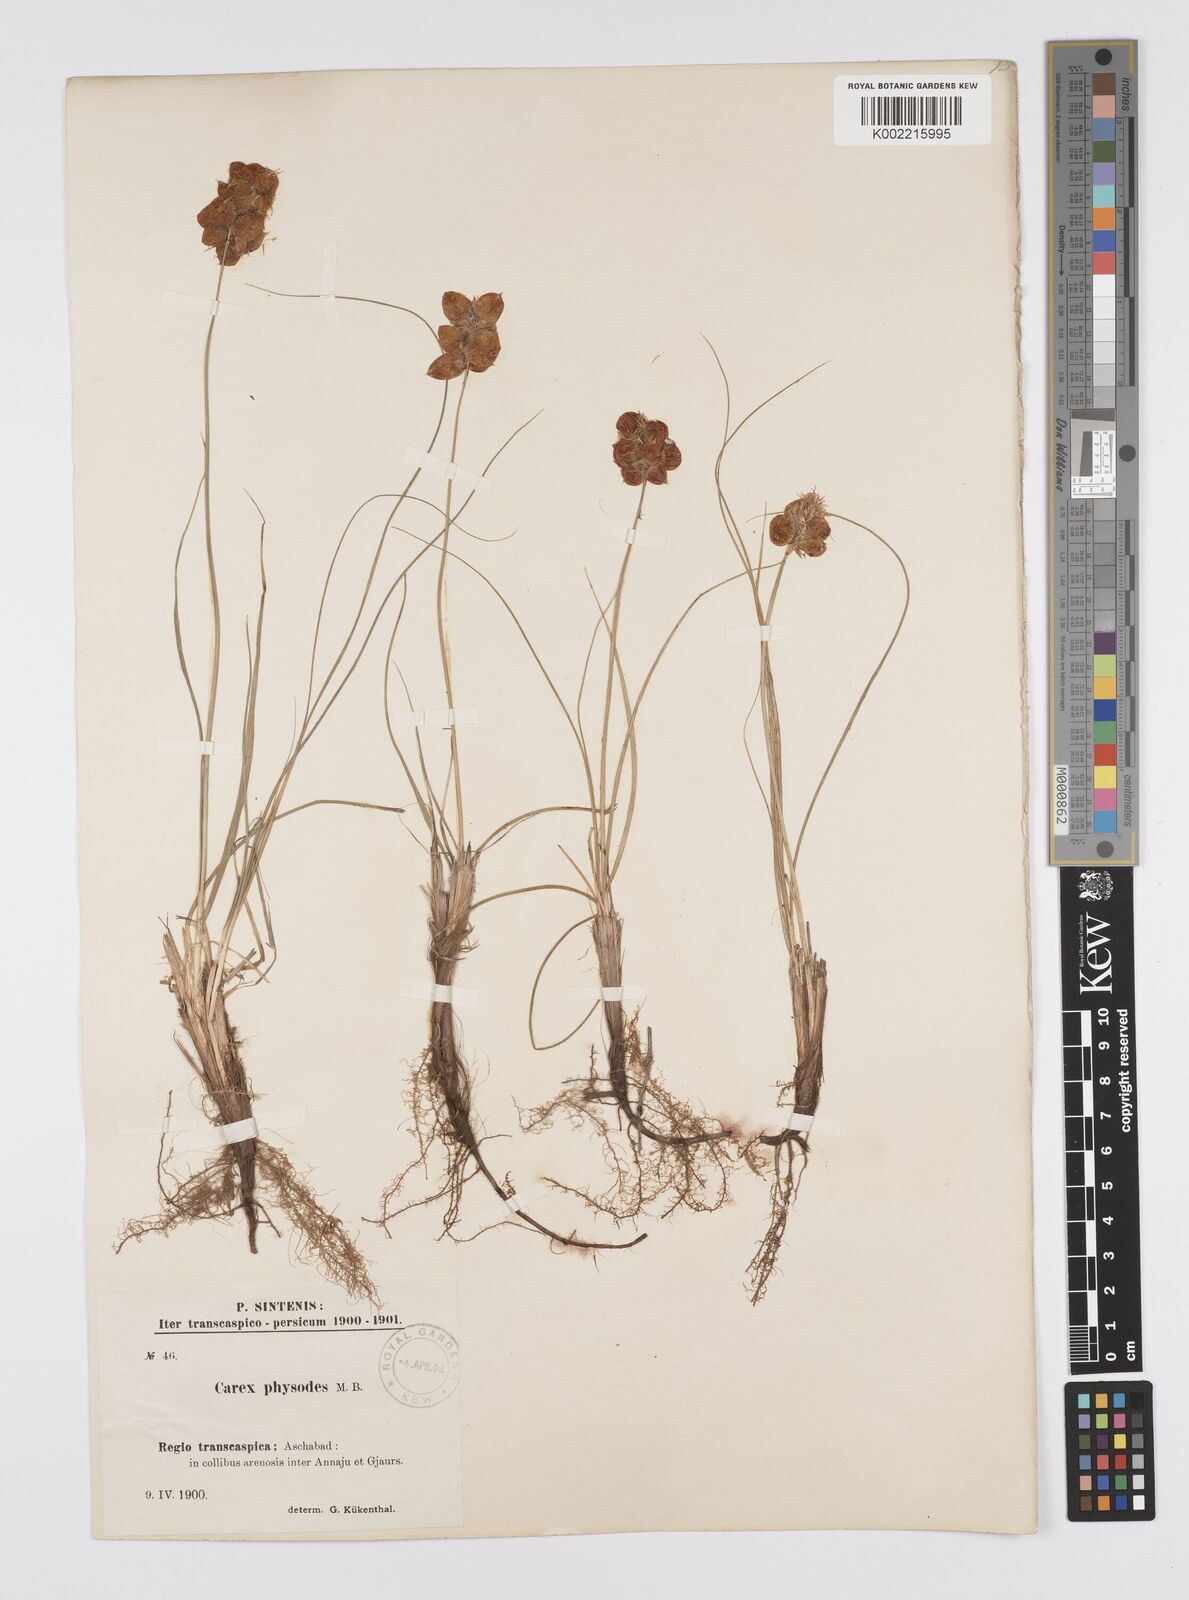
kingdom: Plantae
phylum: Tracheophyta
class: Liliopsida
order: Poales
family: Cyperaceae
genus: Carex
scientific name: Carex physodes
